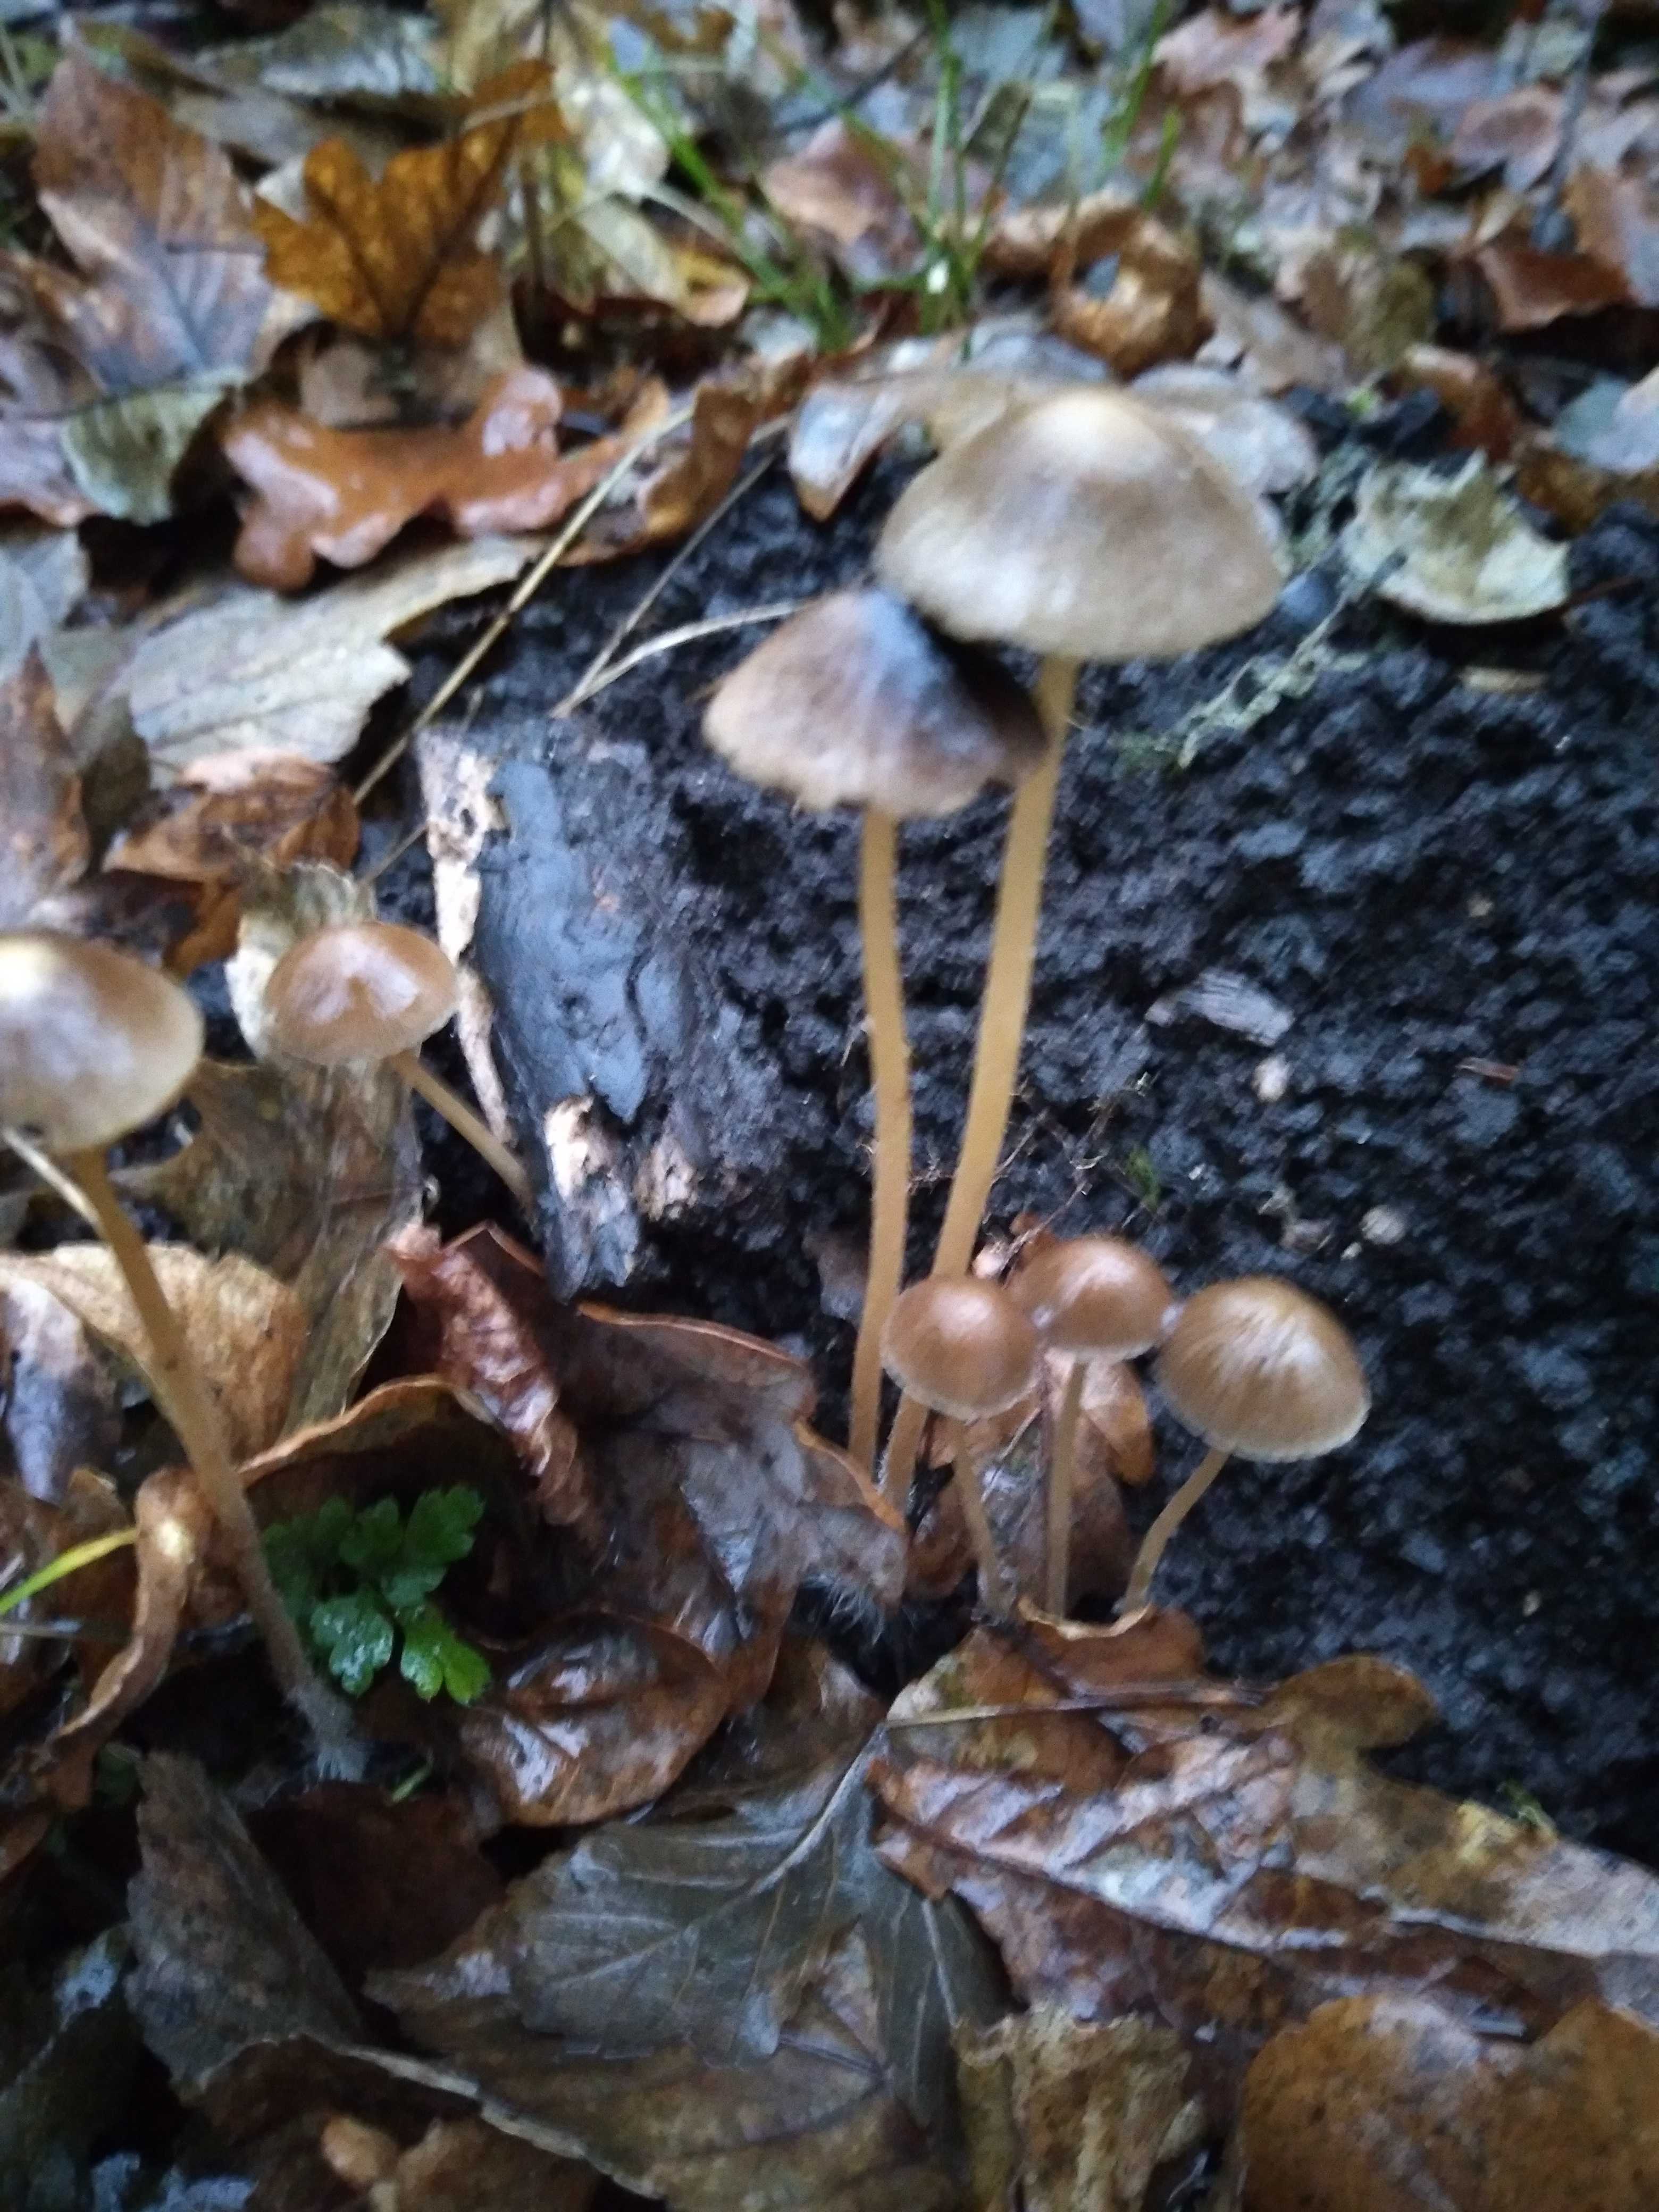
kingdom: Fungi
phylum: Basidiomycota
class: Agaricomycetes
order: Agaricales
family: Psathyrellaceae
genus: Psathyrella
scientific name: Psathyrella
